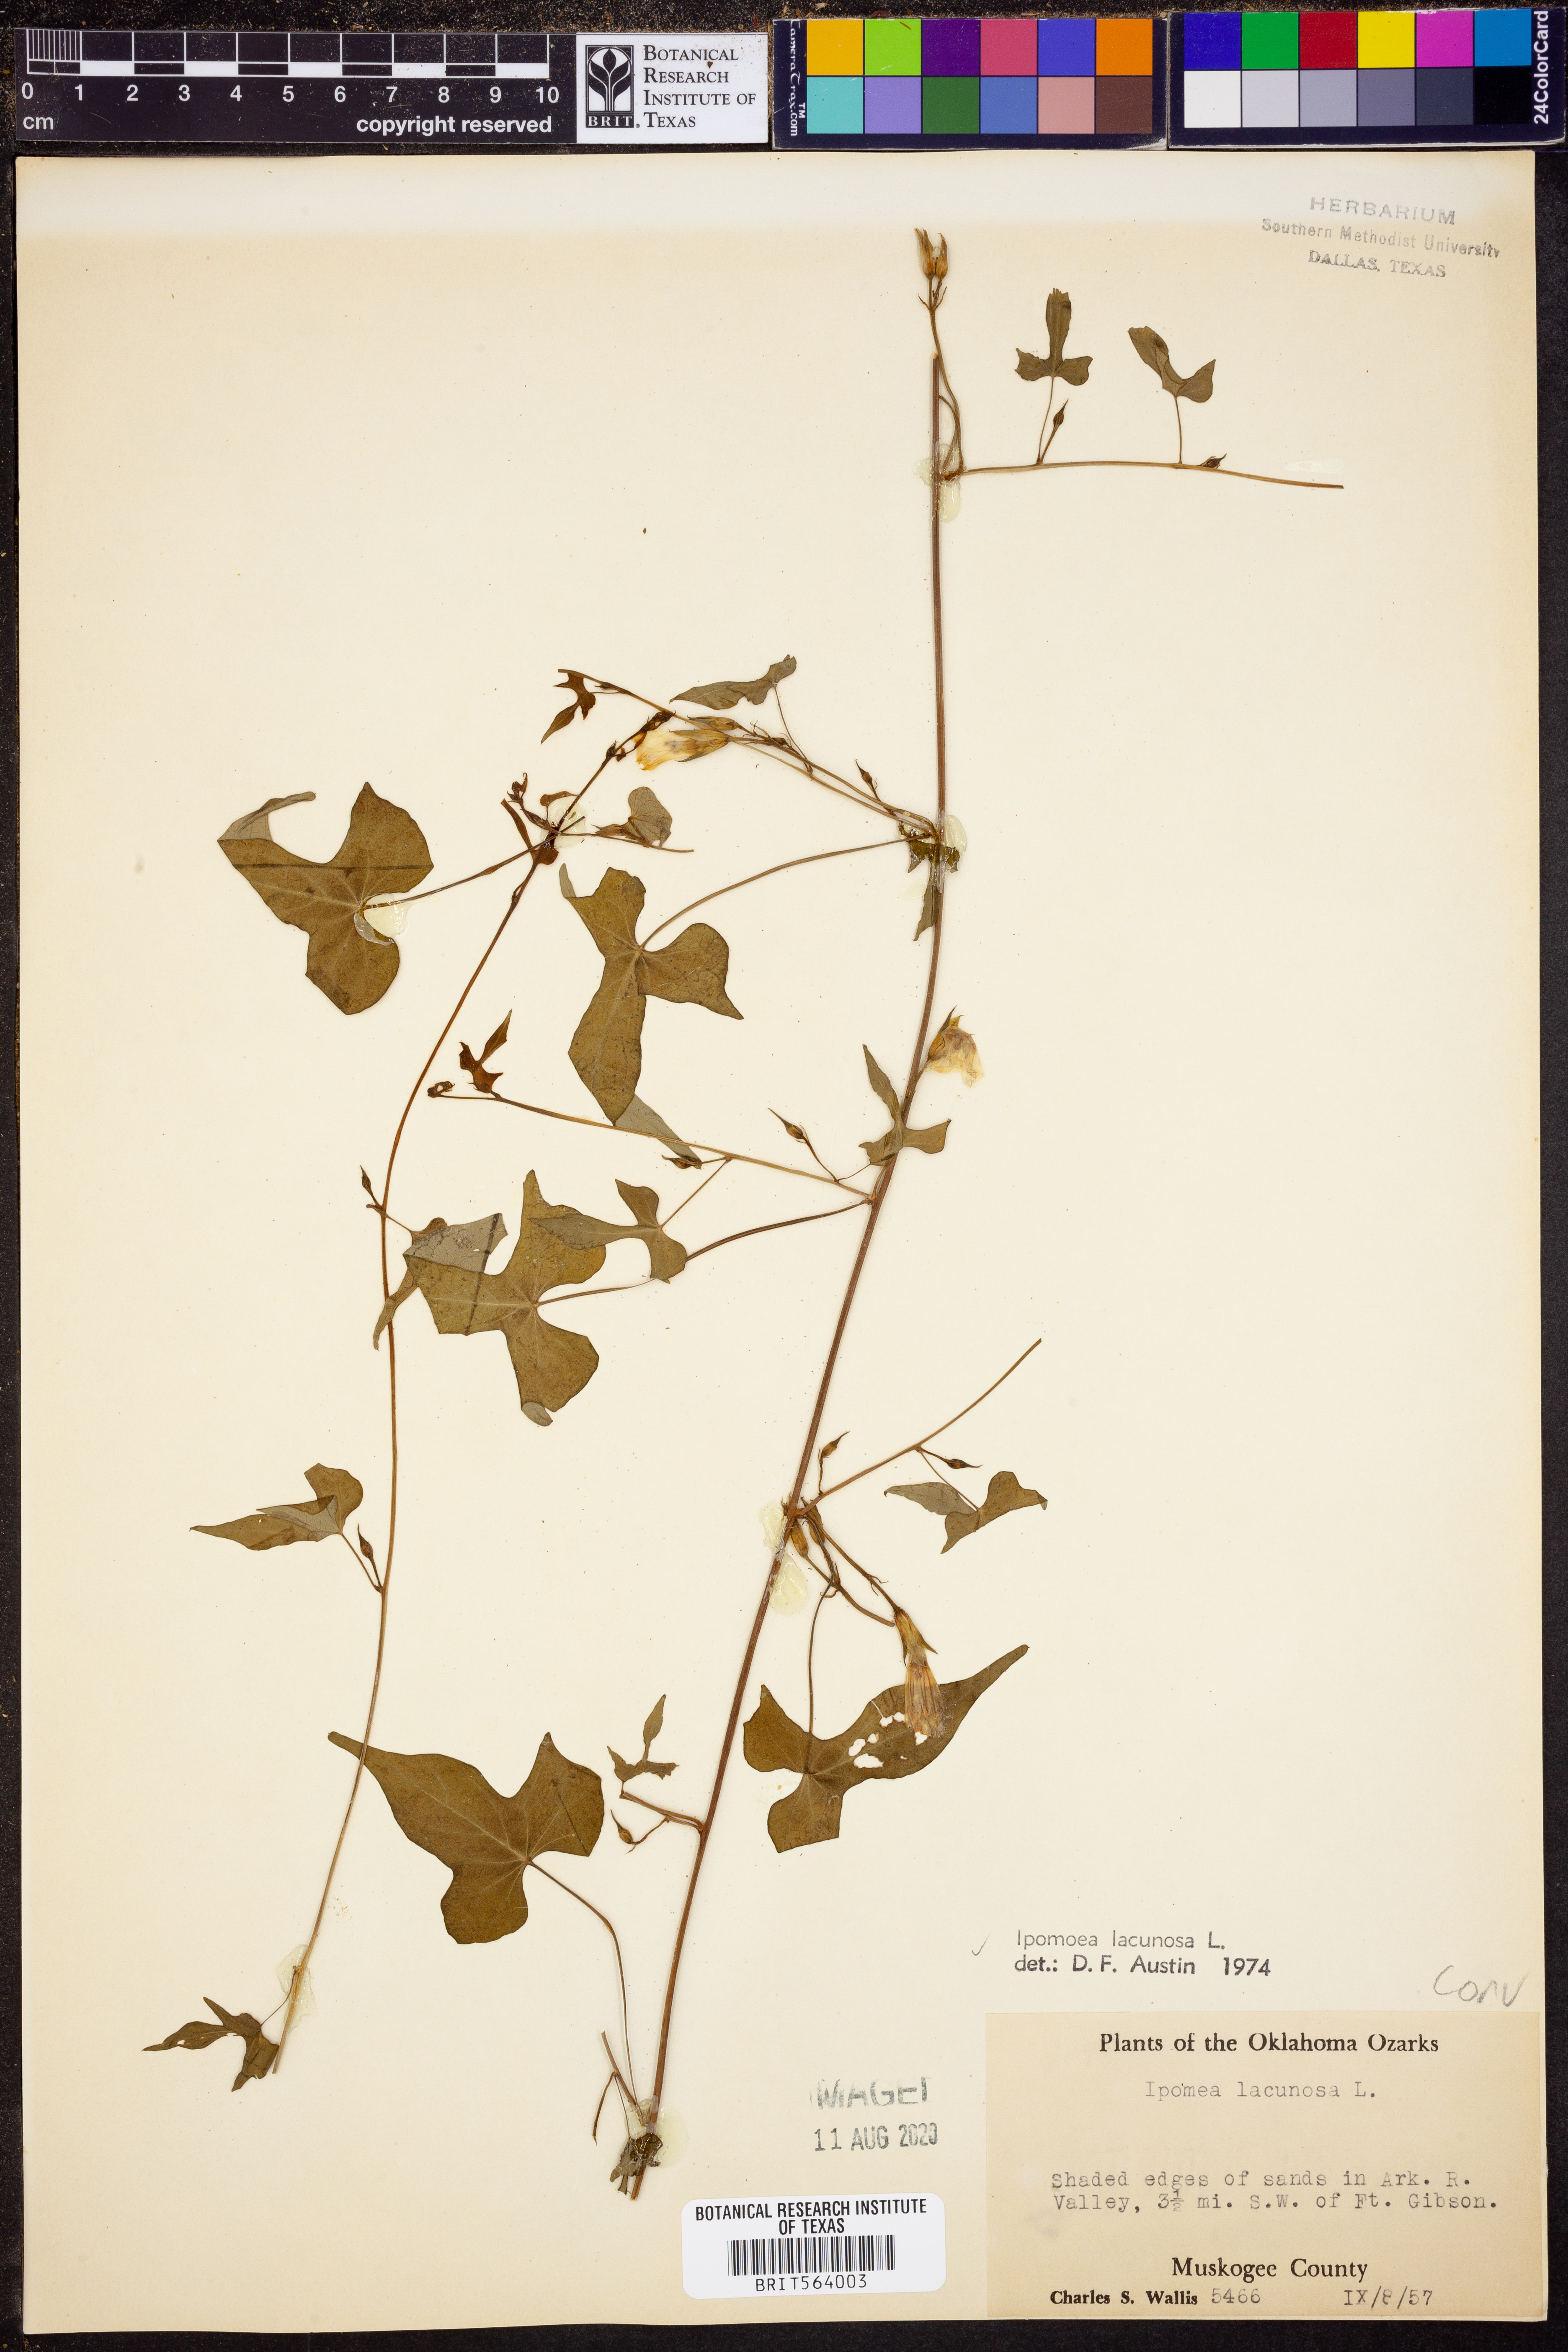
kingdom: Plantae
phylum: Tracheophyta
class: Magnoliopsida
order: Solanales
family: Convolvulaceae
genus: Ipomoea
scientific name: Ipomoea lacunosa
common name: White morning-glory
